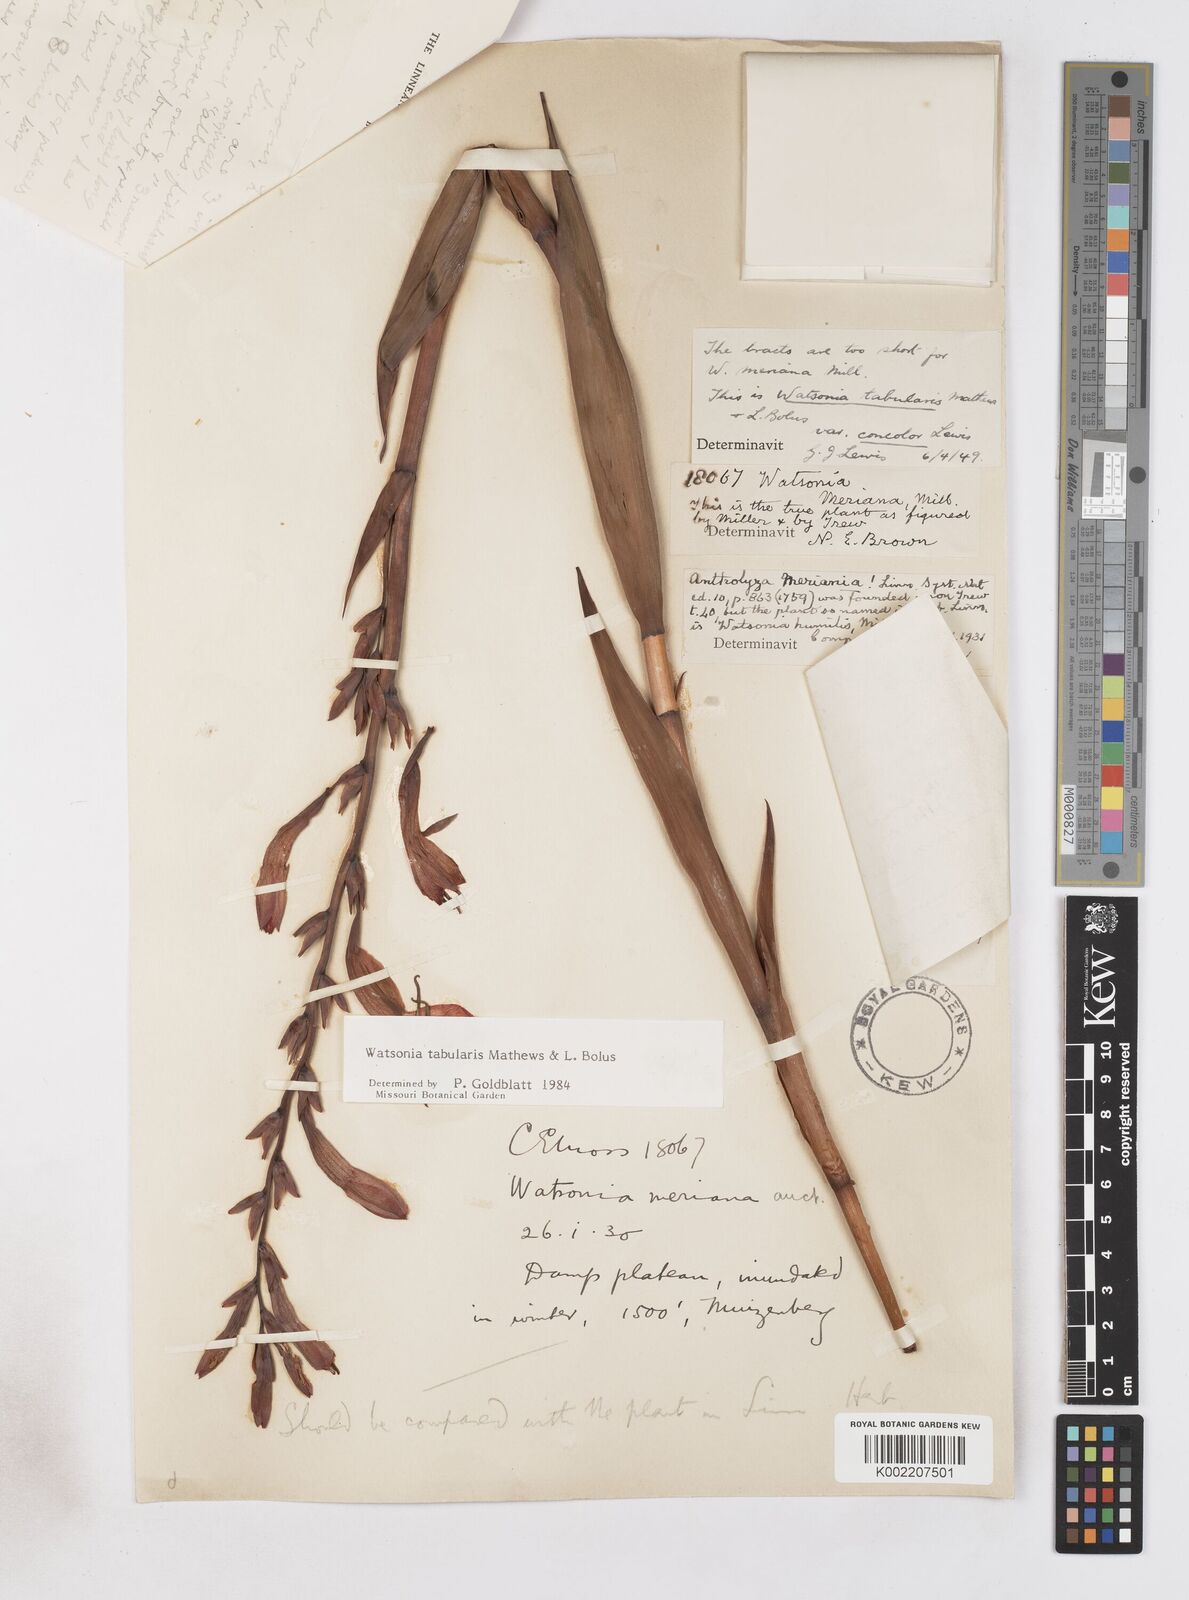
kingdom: Plantae
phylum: Tracheophyta
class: Liliopsida
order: Asparagales
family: Iridaceae
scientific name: Iridaceae
